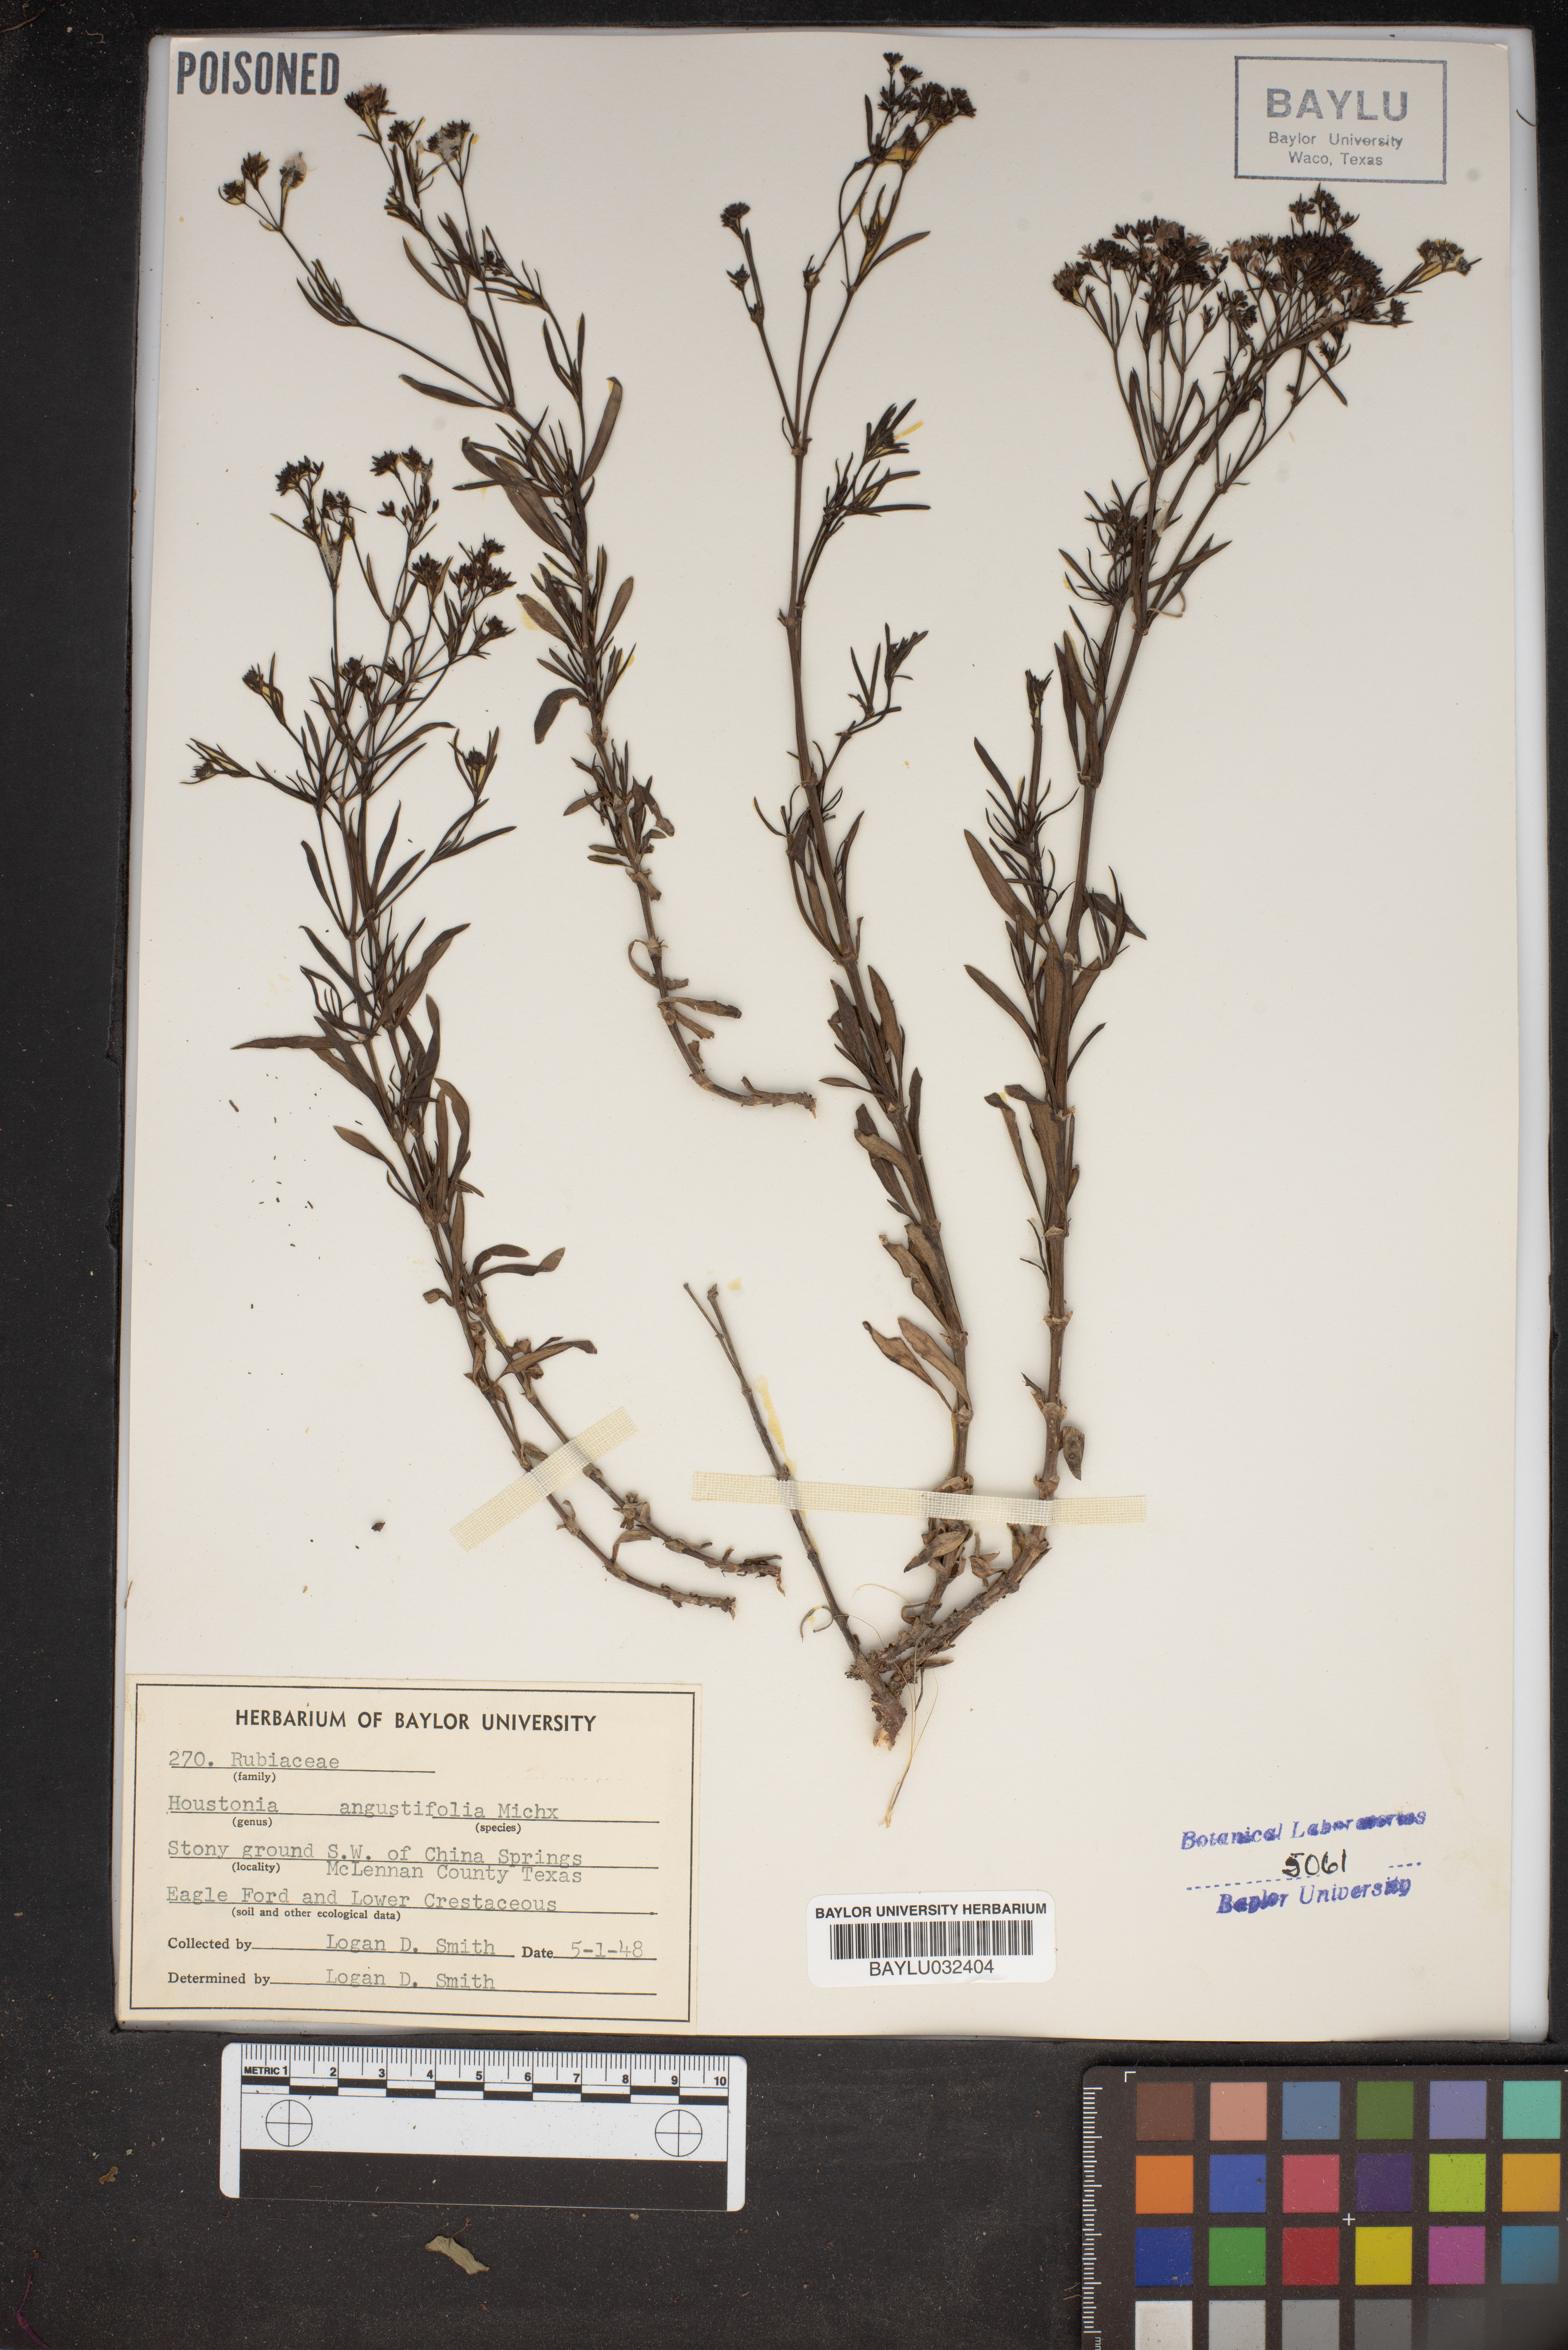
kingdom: Plantae
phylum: Tracheophyta
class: Magnoliopsida
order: Gentianales
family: Rubiaceae
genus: Stenaria
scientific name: Stenaria nigricans
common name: Diamondflowers
